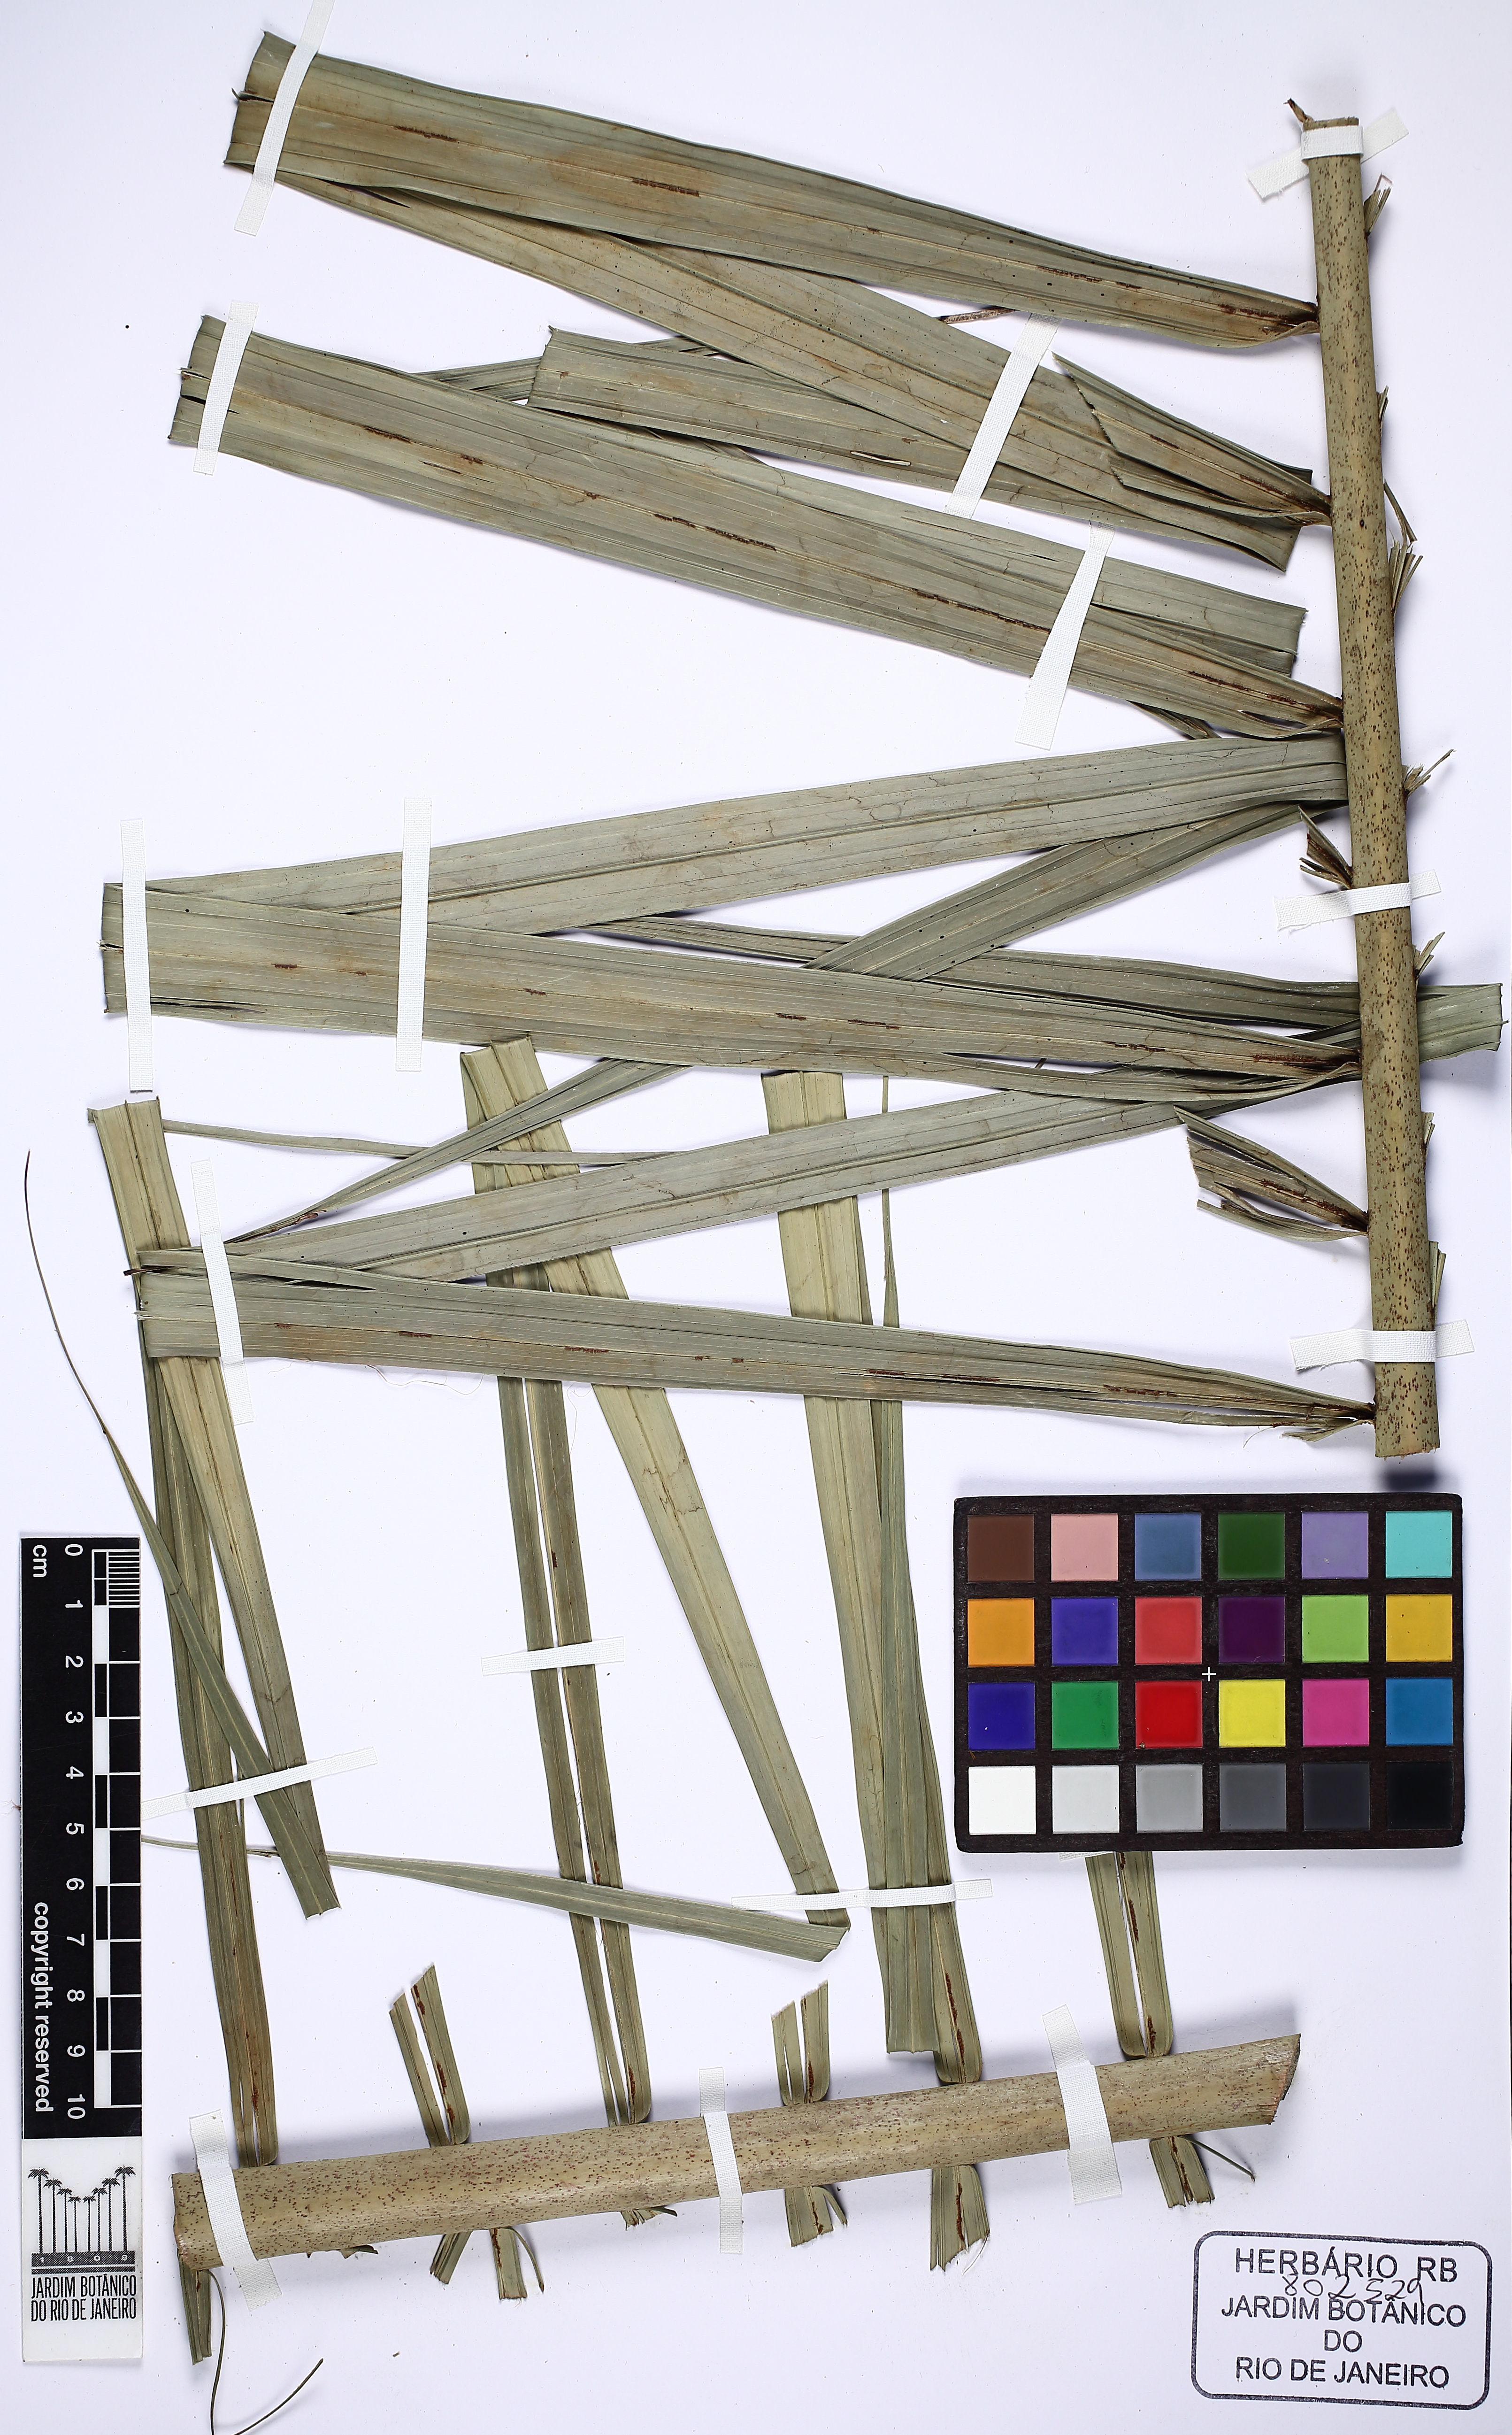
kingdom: Plantae
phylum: Tracheophyta
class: Liliopsida
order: Arecales
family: Arecaceae
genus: Euterpe
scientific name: Euterpe catinga
